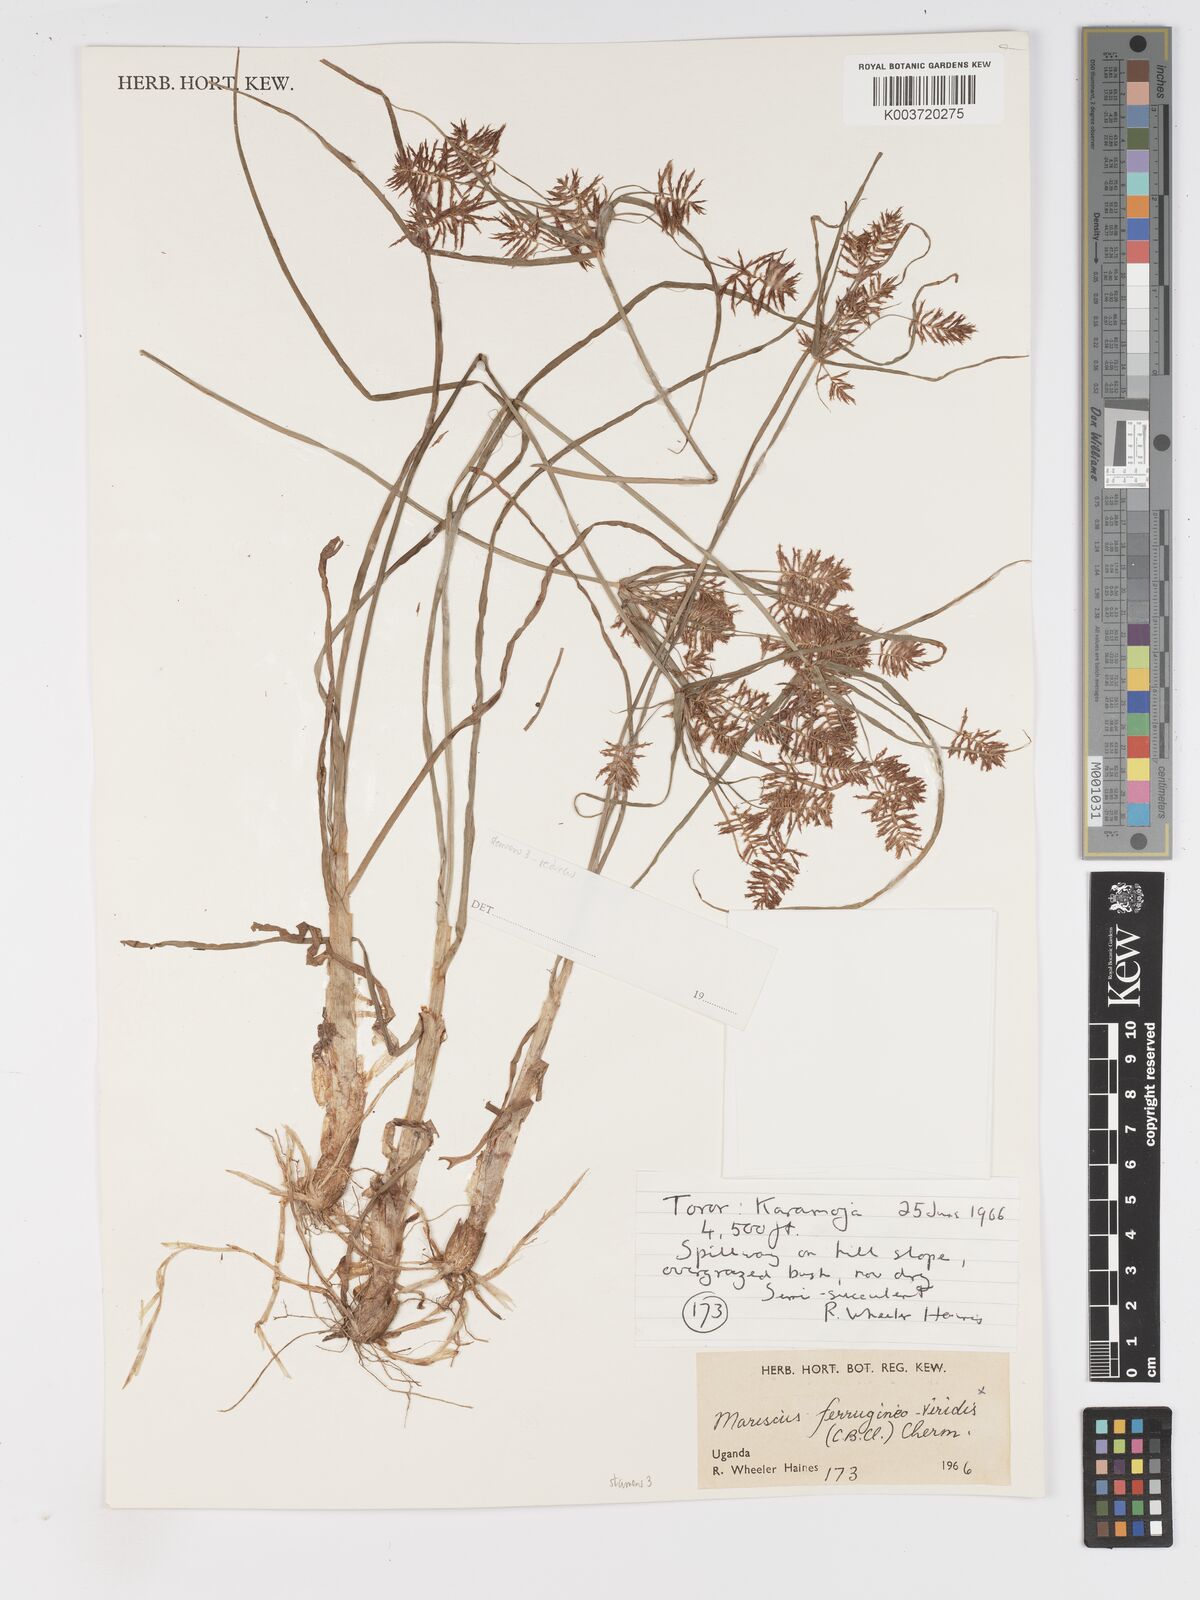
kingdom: Plantae
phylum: Tracheophyta
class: Liliopsida
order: Poales
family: Cyperaceae
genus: Cyperus
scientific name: Cyperus
